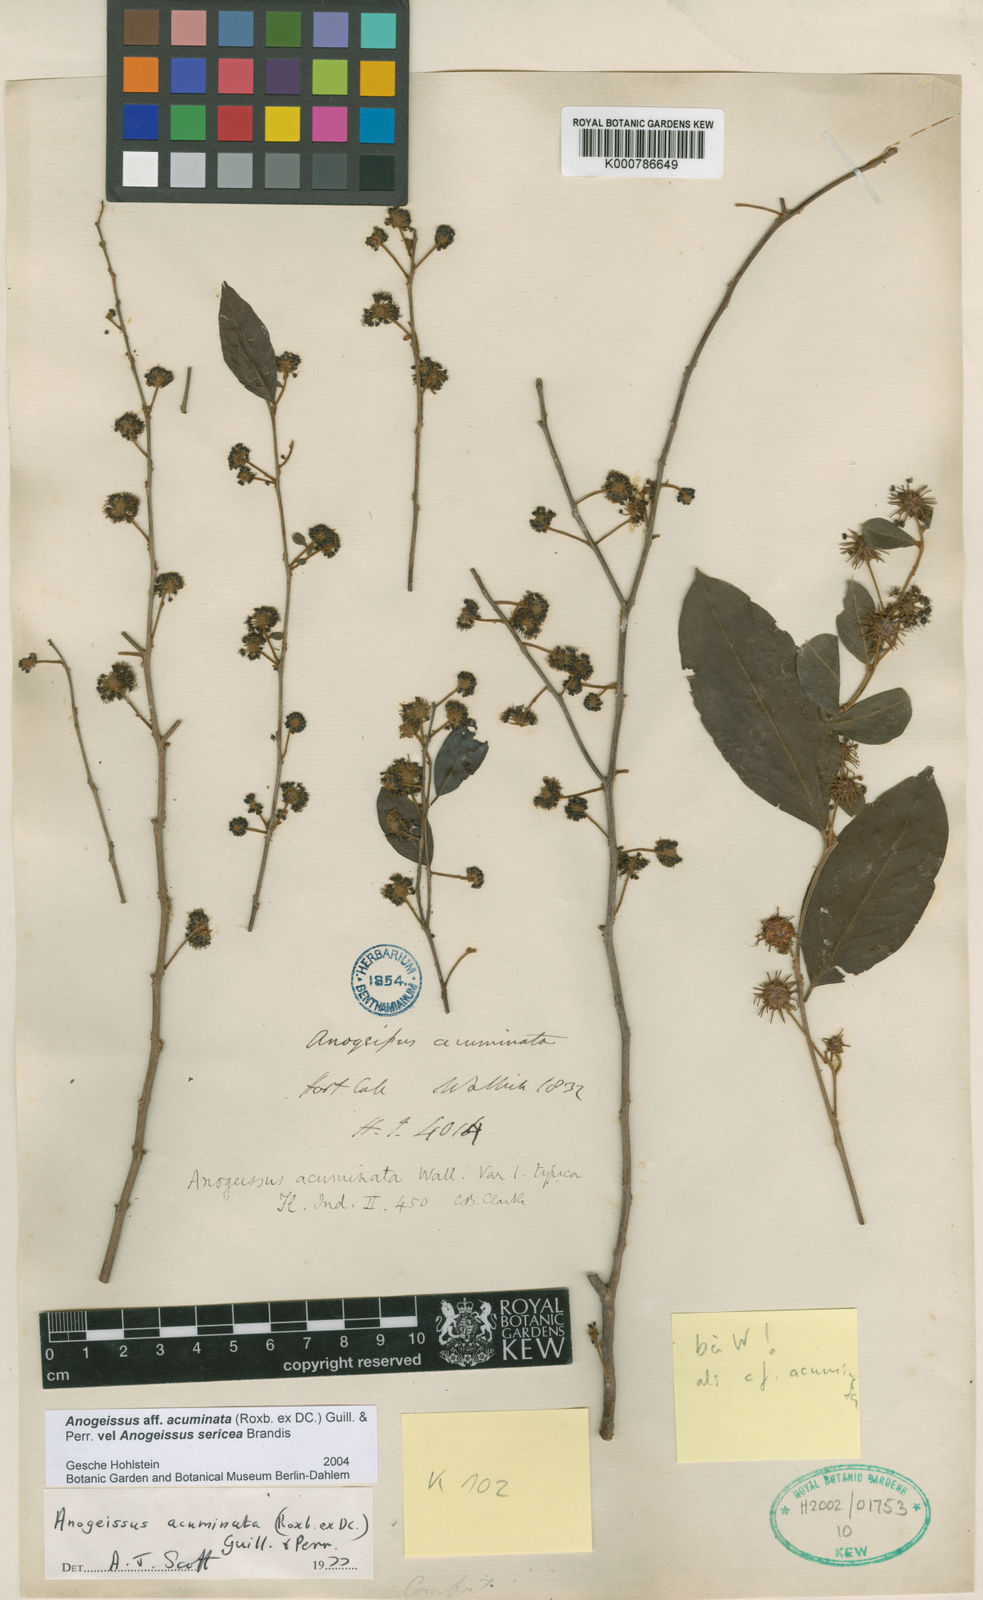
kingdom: Plantae
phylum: Tracheophyta
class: Magnoliopsida
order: Myrtales
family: Combretaceae
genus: Terminalia
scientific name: Terminalia phillyreifolia
